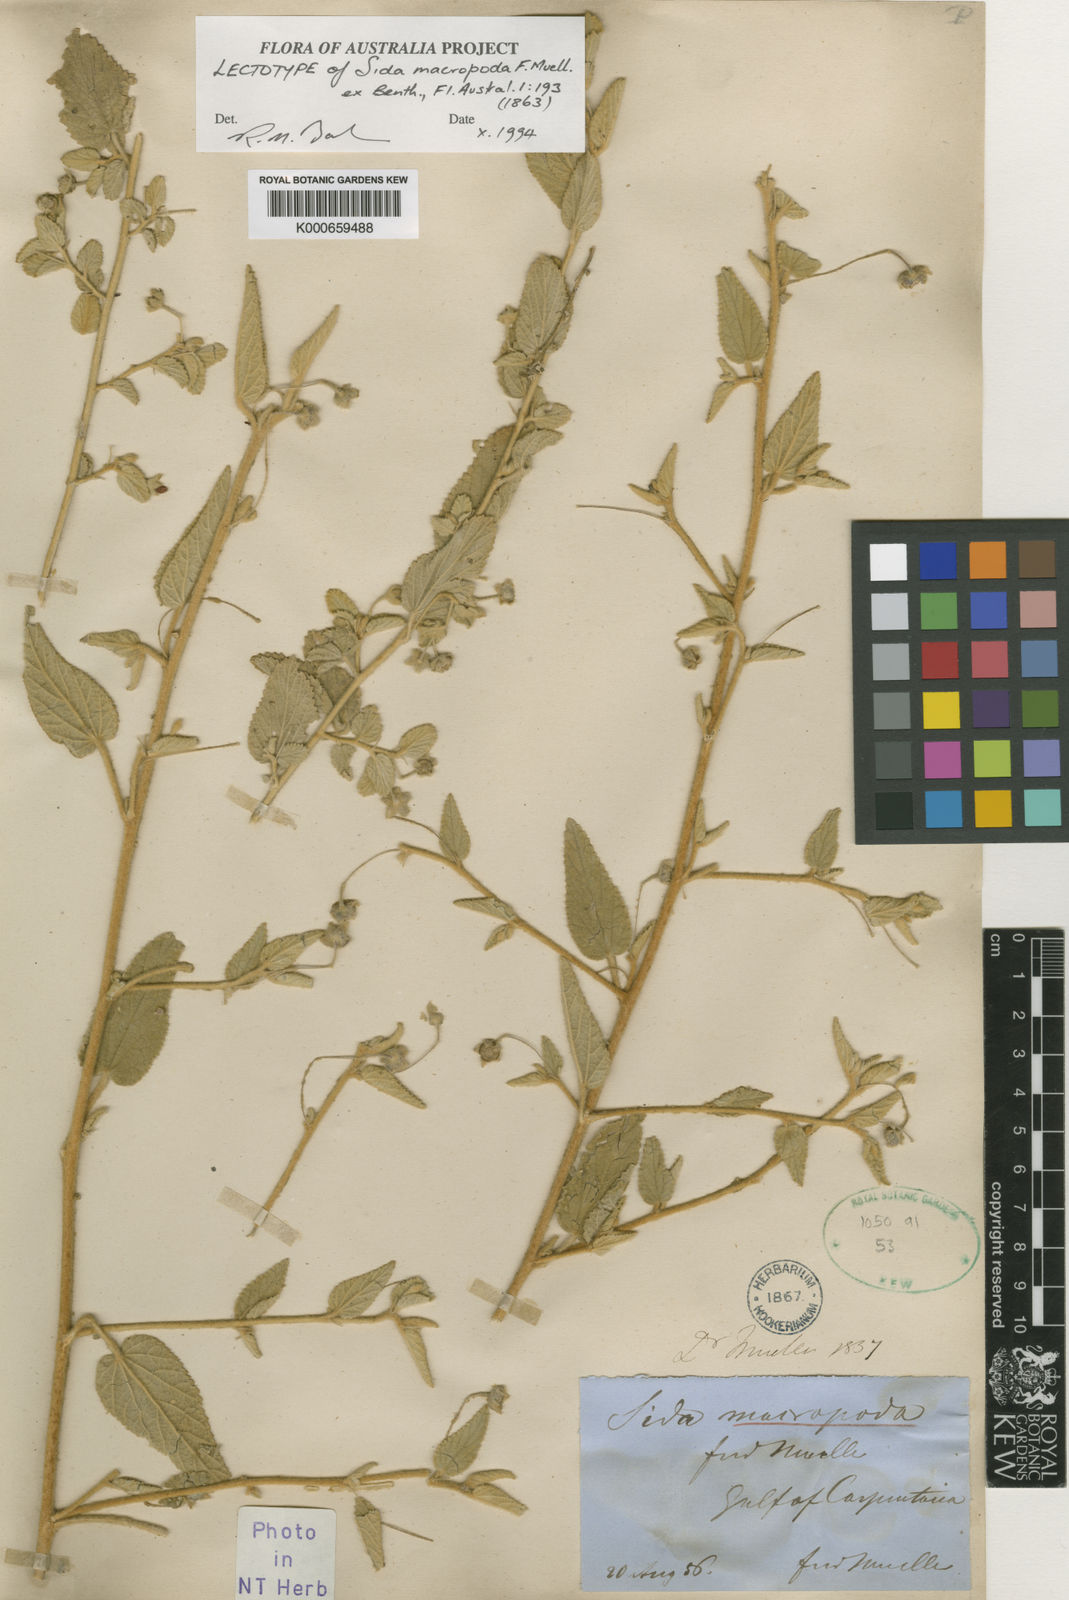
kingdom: Plantae
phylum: Tracheophyta
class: Magnoliopsida
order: Malvales
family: Malvaceae
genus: Sida
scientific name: Sida macropoda
